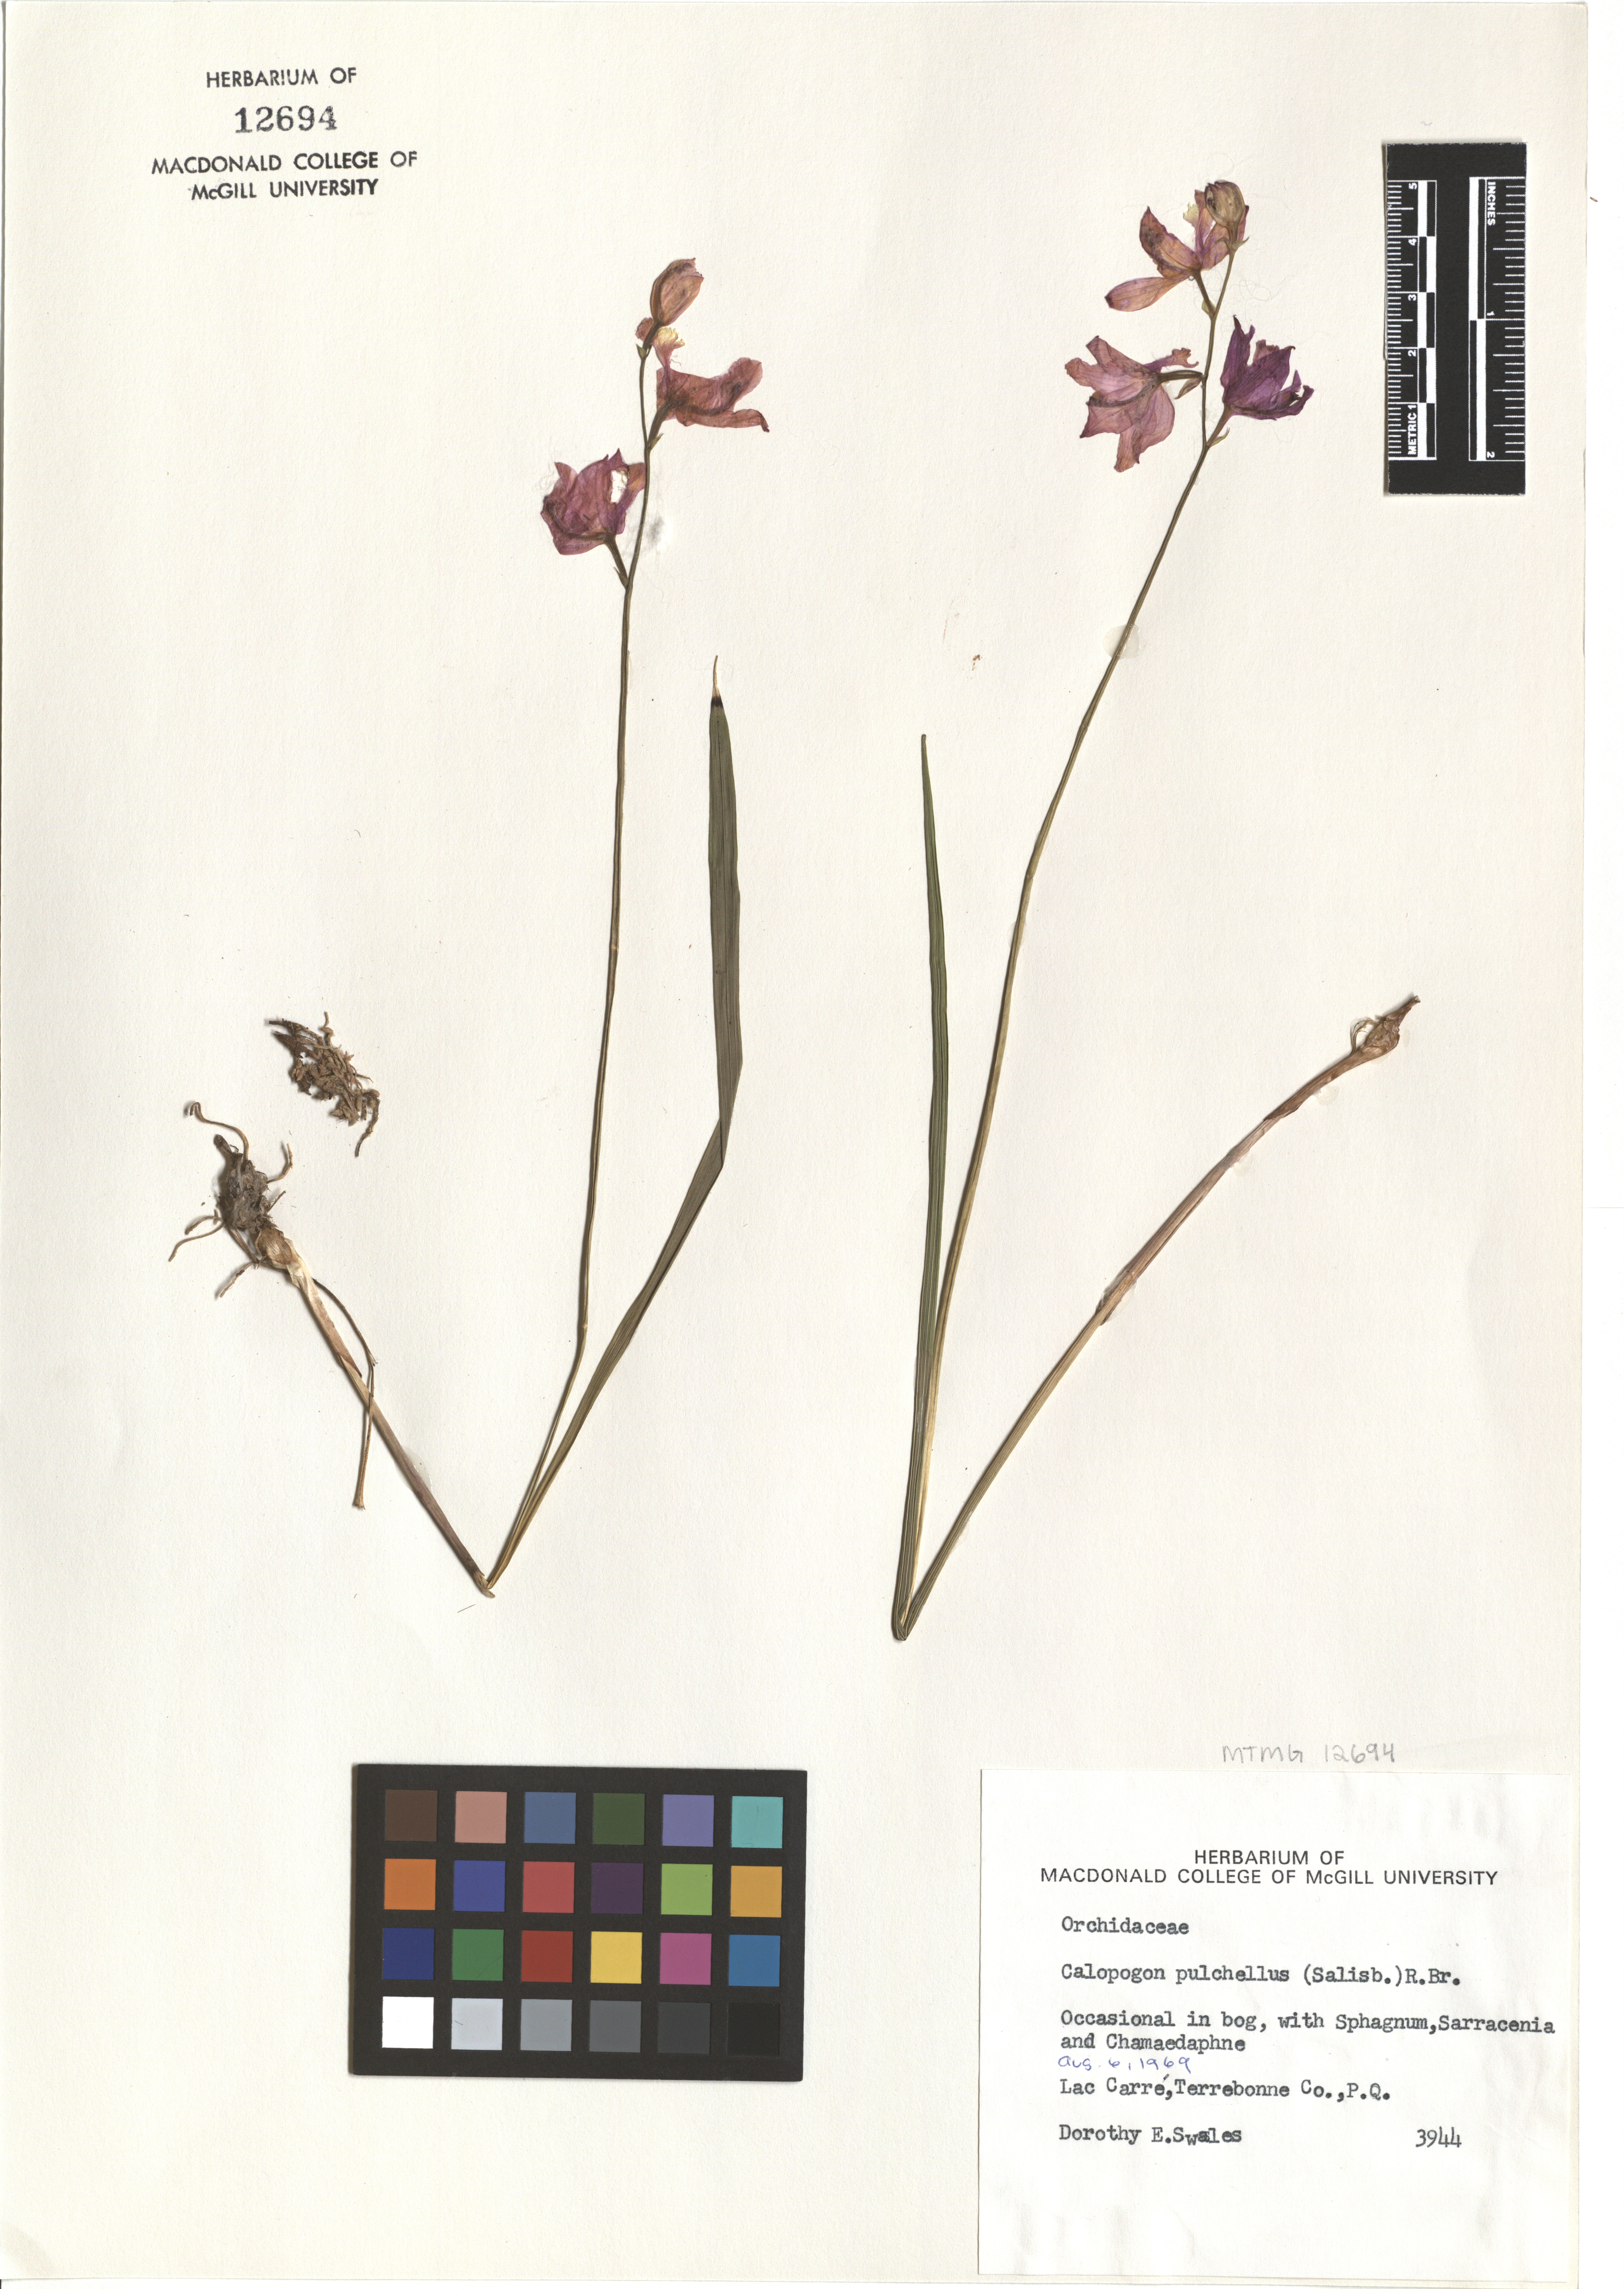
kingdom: Plantae
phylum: Tracheophyta
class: Liliopsida
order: Asparagales
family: Orchidaceae
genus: Calopogon
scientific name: Calopogon tuberosus
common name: Grass-pink
